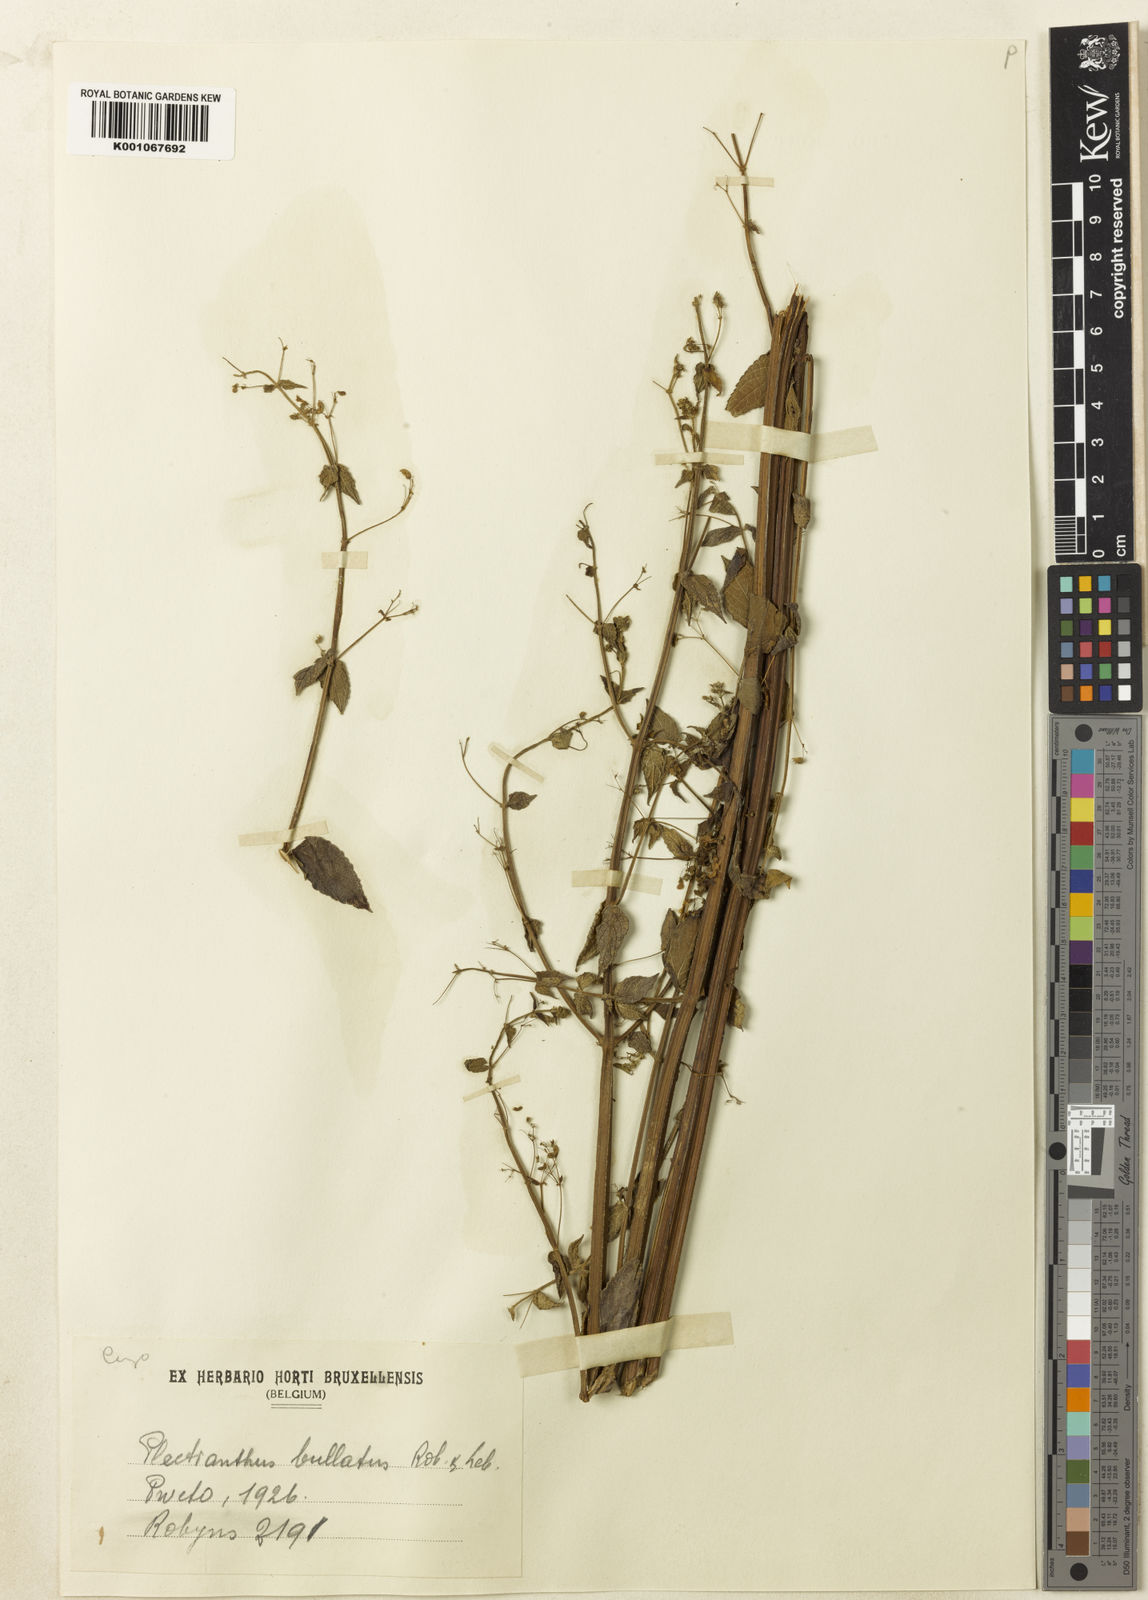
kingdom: Plantae
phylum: Tracheophyta
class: Magnoliopsida
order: Lamiales
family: Lamiaceae
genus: Isodon
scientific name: Isodon ramosissimus
